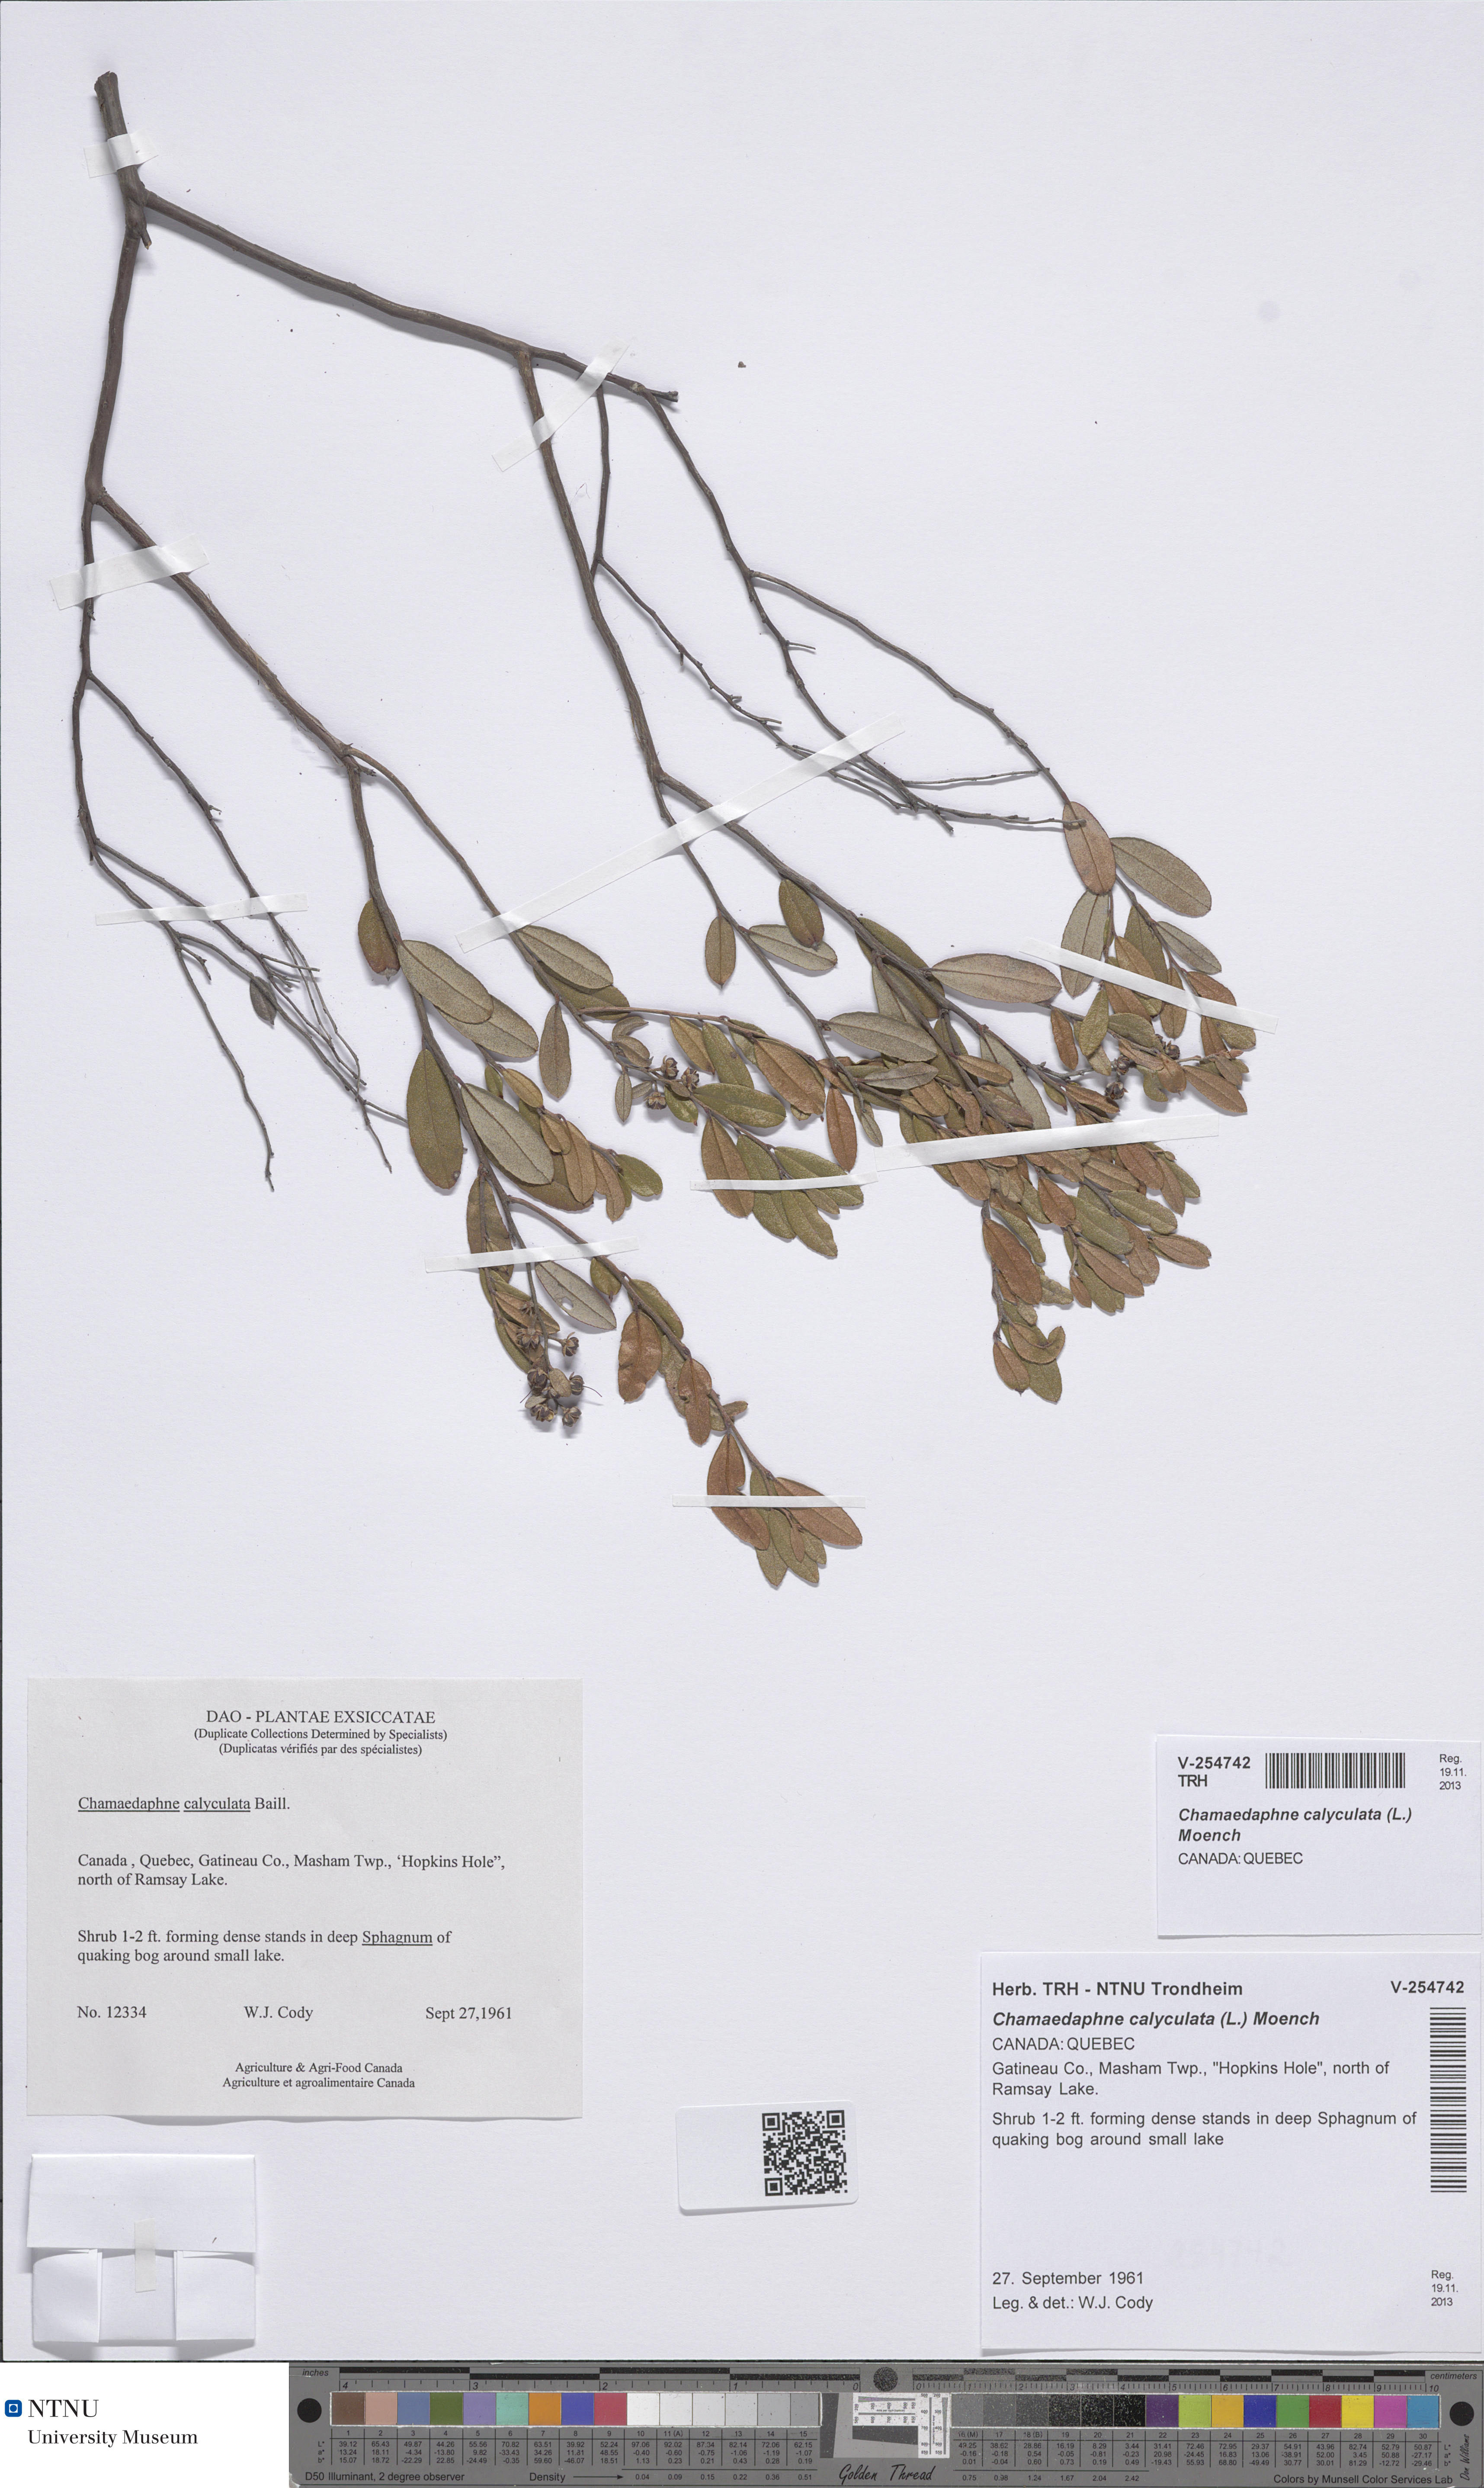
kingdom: Plantae
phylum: Tracheophyta
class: Magnoliopsida
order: Ericales
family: Ericaceae
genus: Chamaedaphne
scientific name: Chamaedaphne calyculata
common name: Leatherleaf
